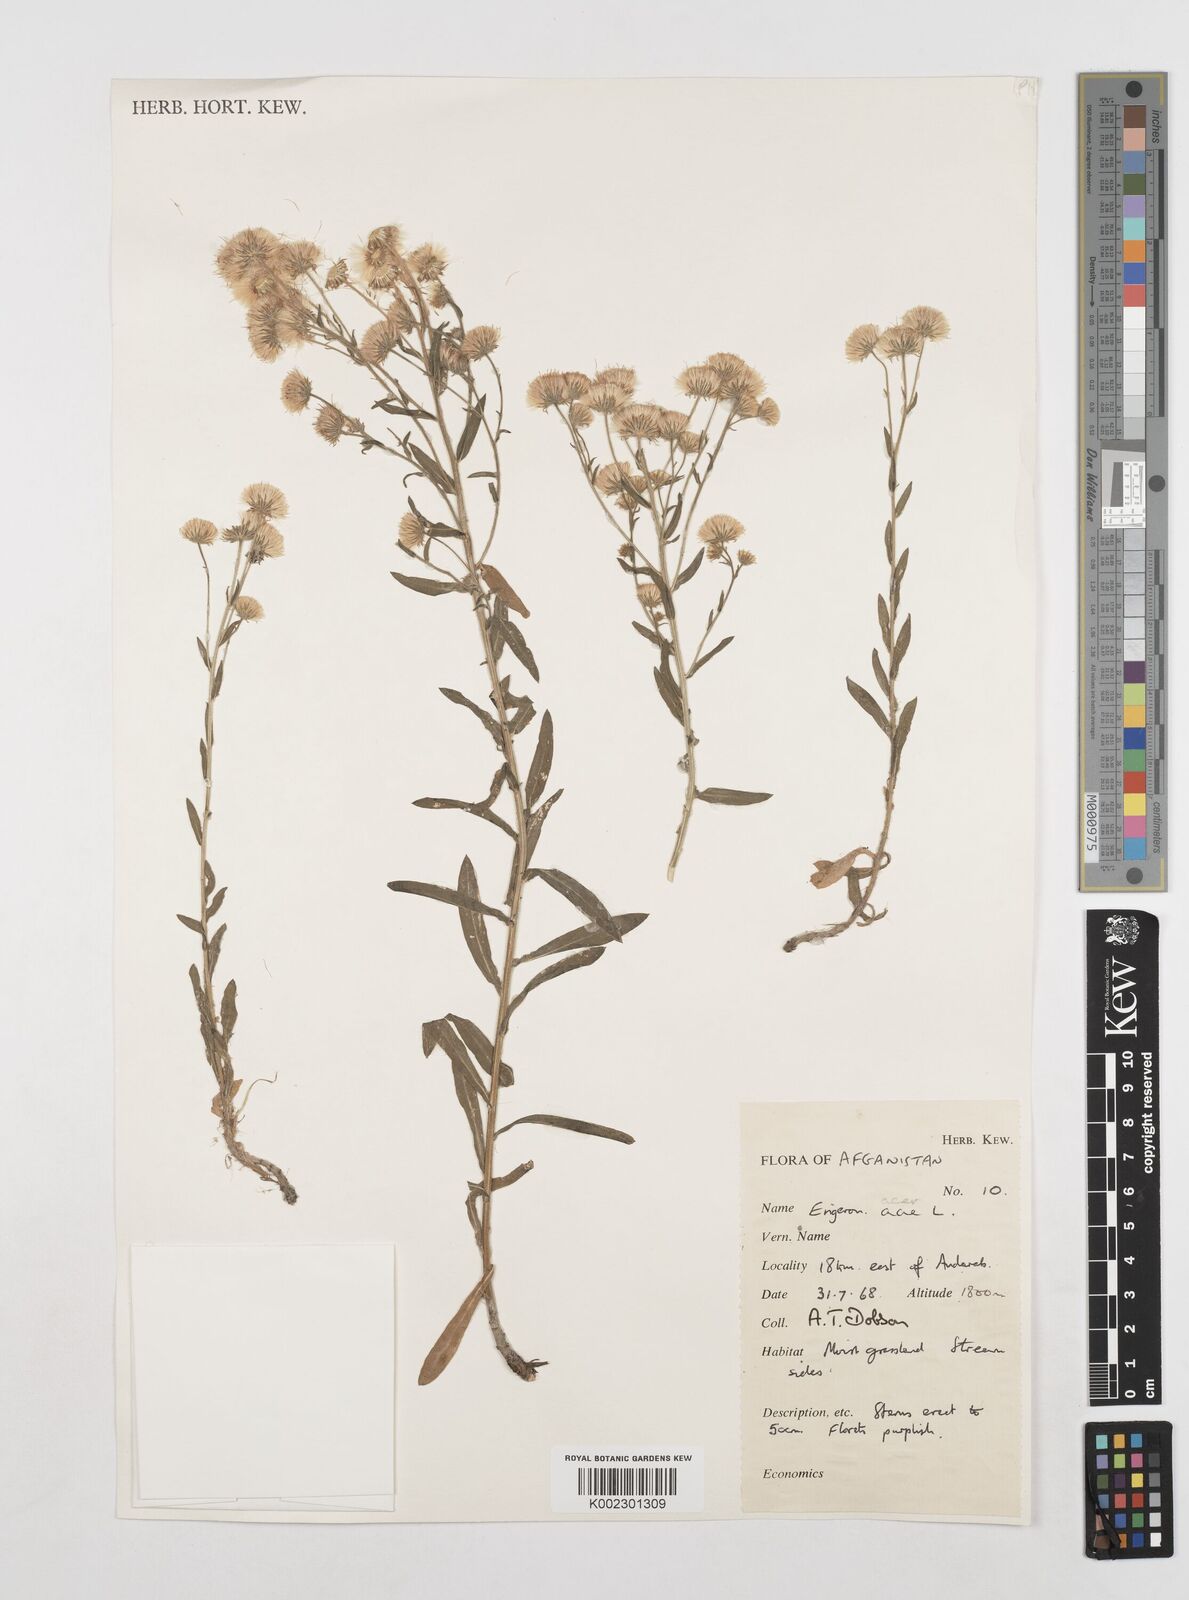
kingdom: Plantae
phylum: Tracheophyta
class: Magnoliopsida
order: Asterales
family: Asteraceae
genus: Erigeron
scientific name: Erigeron acris
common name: Blue fleabane
